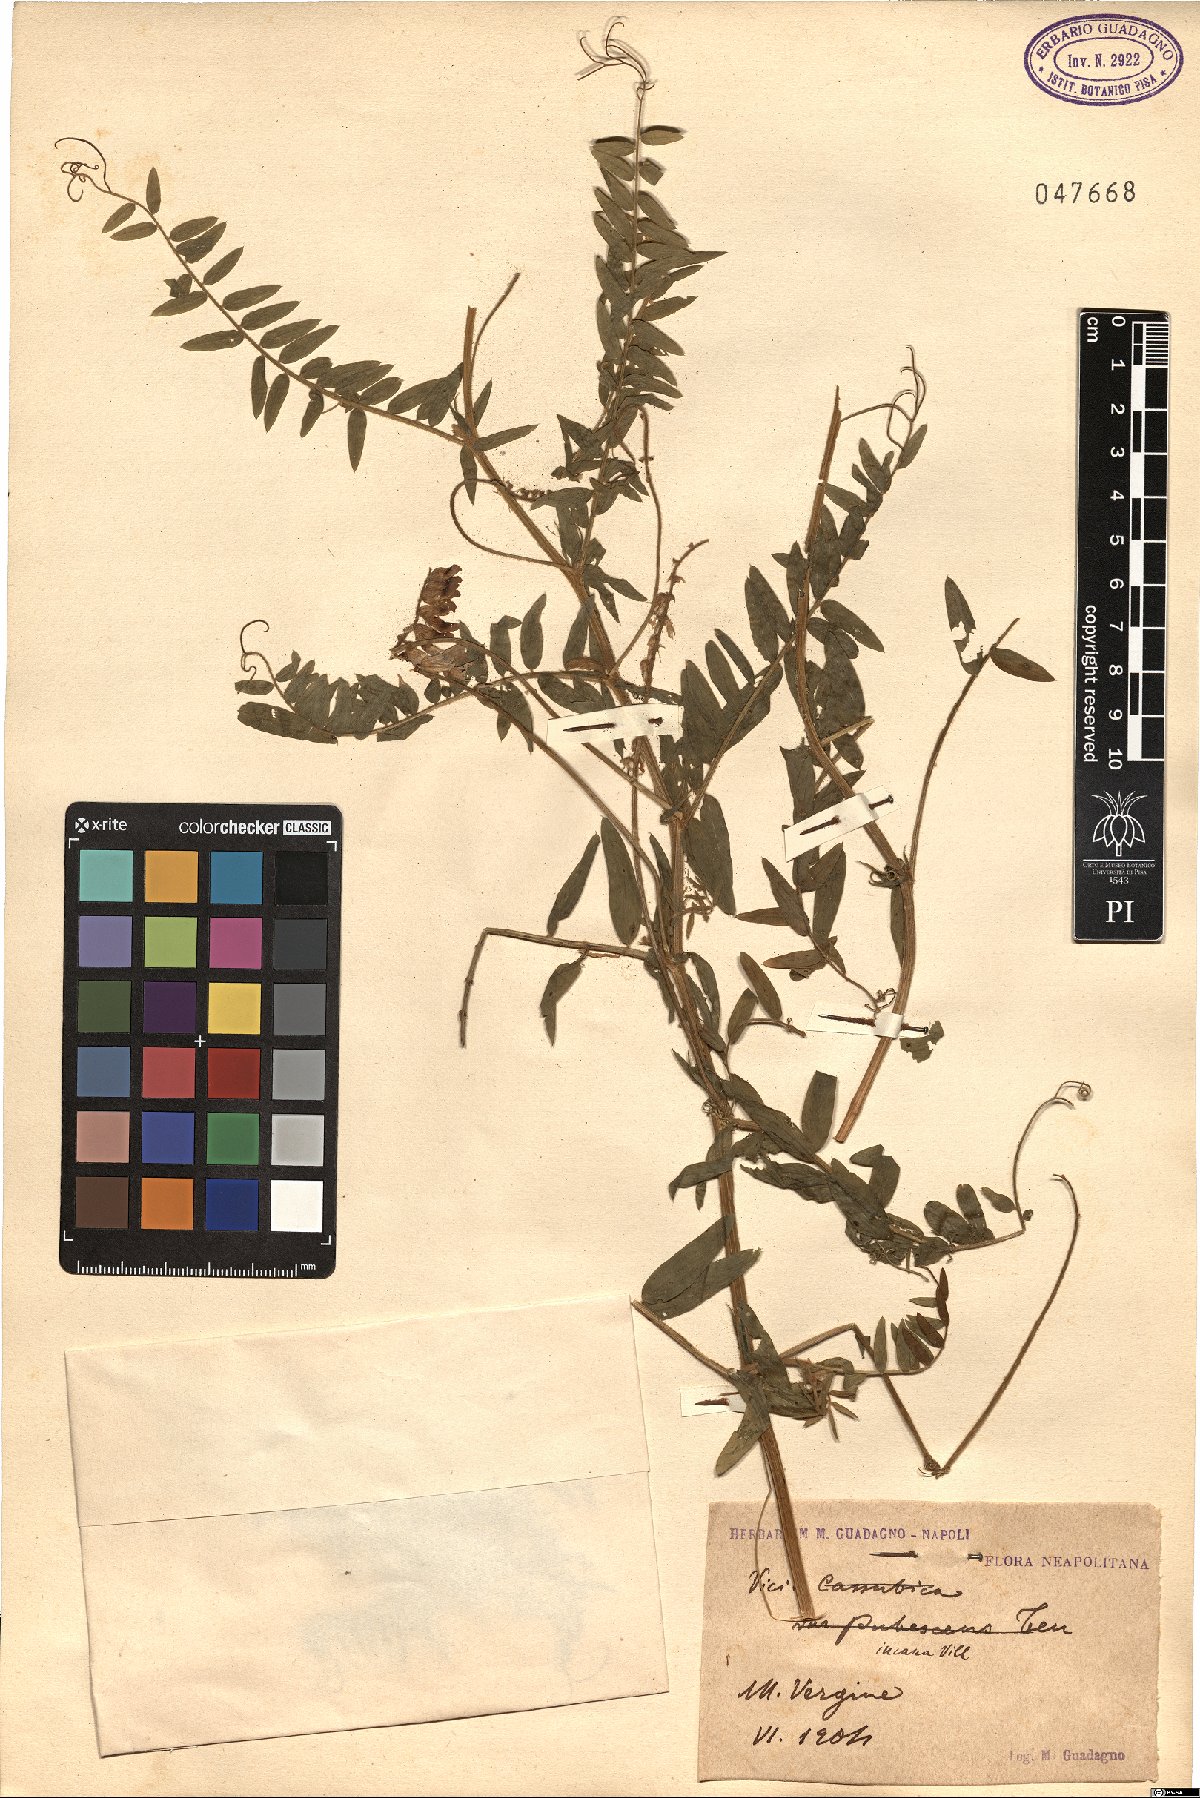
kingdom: Plantae
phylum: Tracheophyta
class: Magnoliopsida
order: Fabales
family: Fabaceae
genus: Vicia
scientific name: Vicia incana
